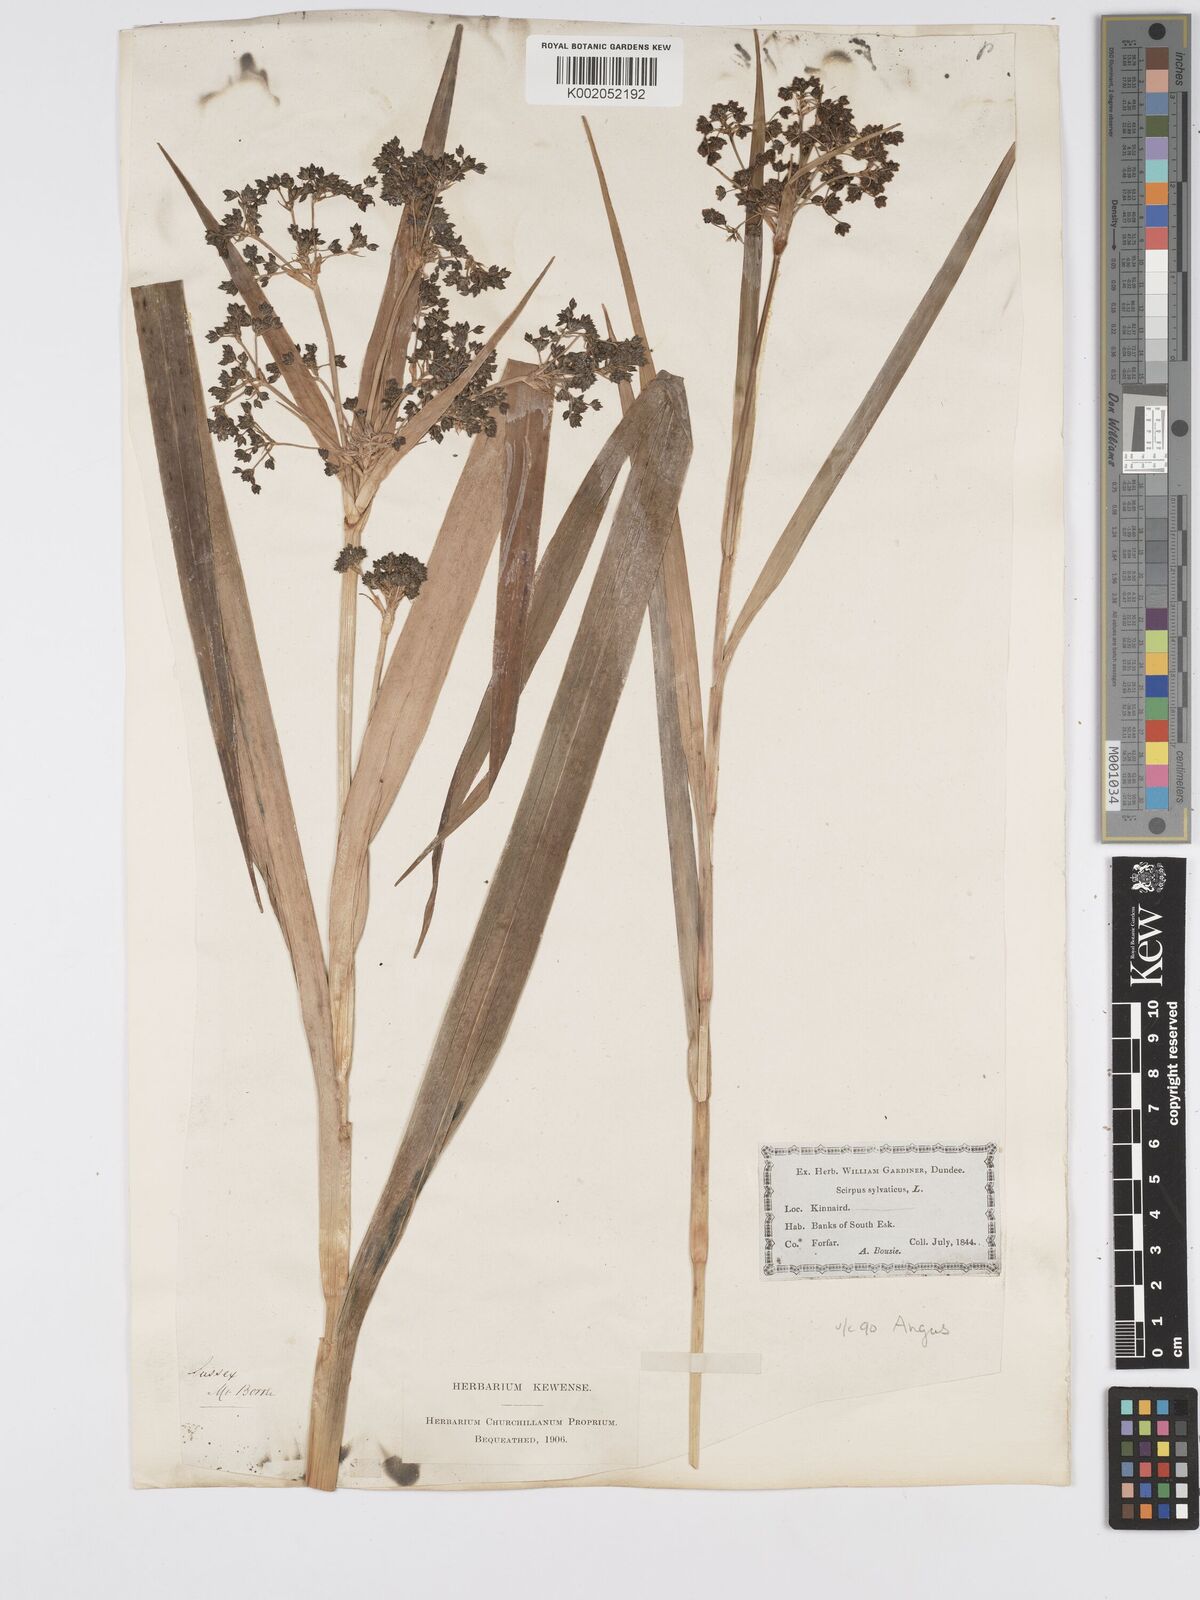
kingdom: Plantae
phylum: Tracheophyta
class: Liliopsida
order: Poales
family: Cyperaceae
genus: Scirpus
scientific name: Scirpus sylvaticus
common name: Wood club-rush
